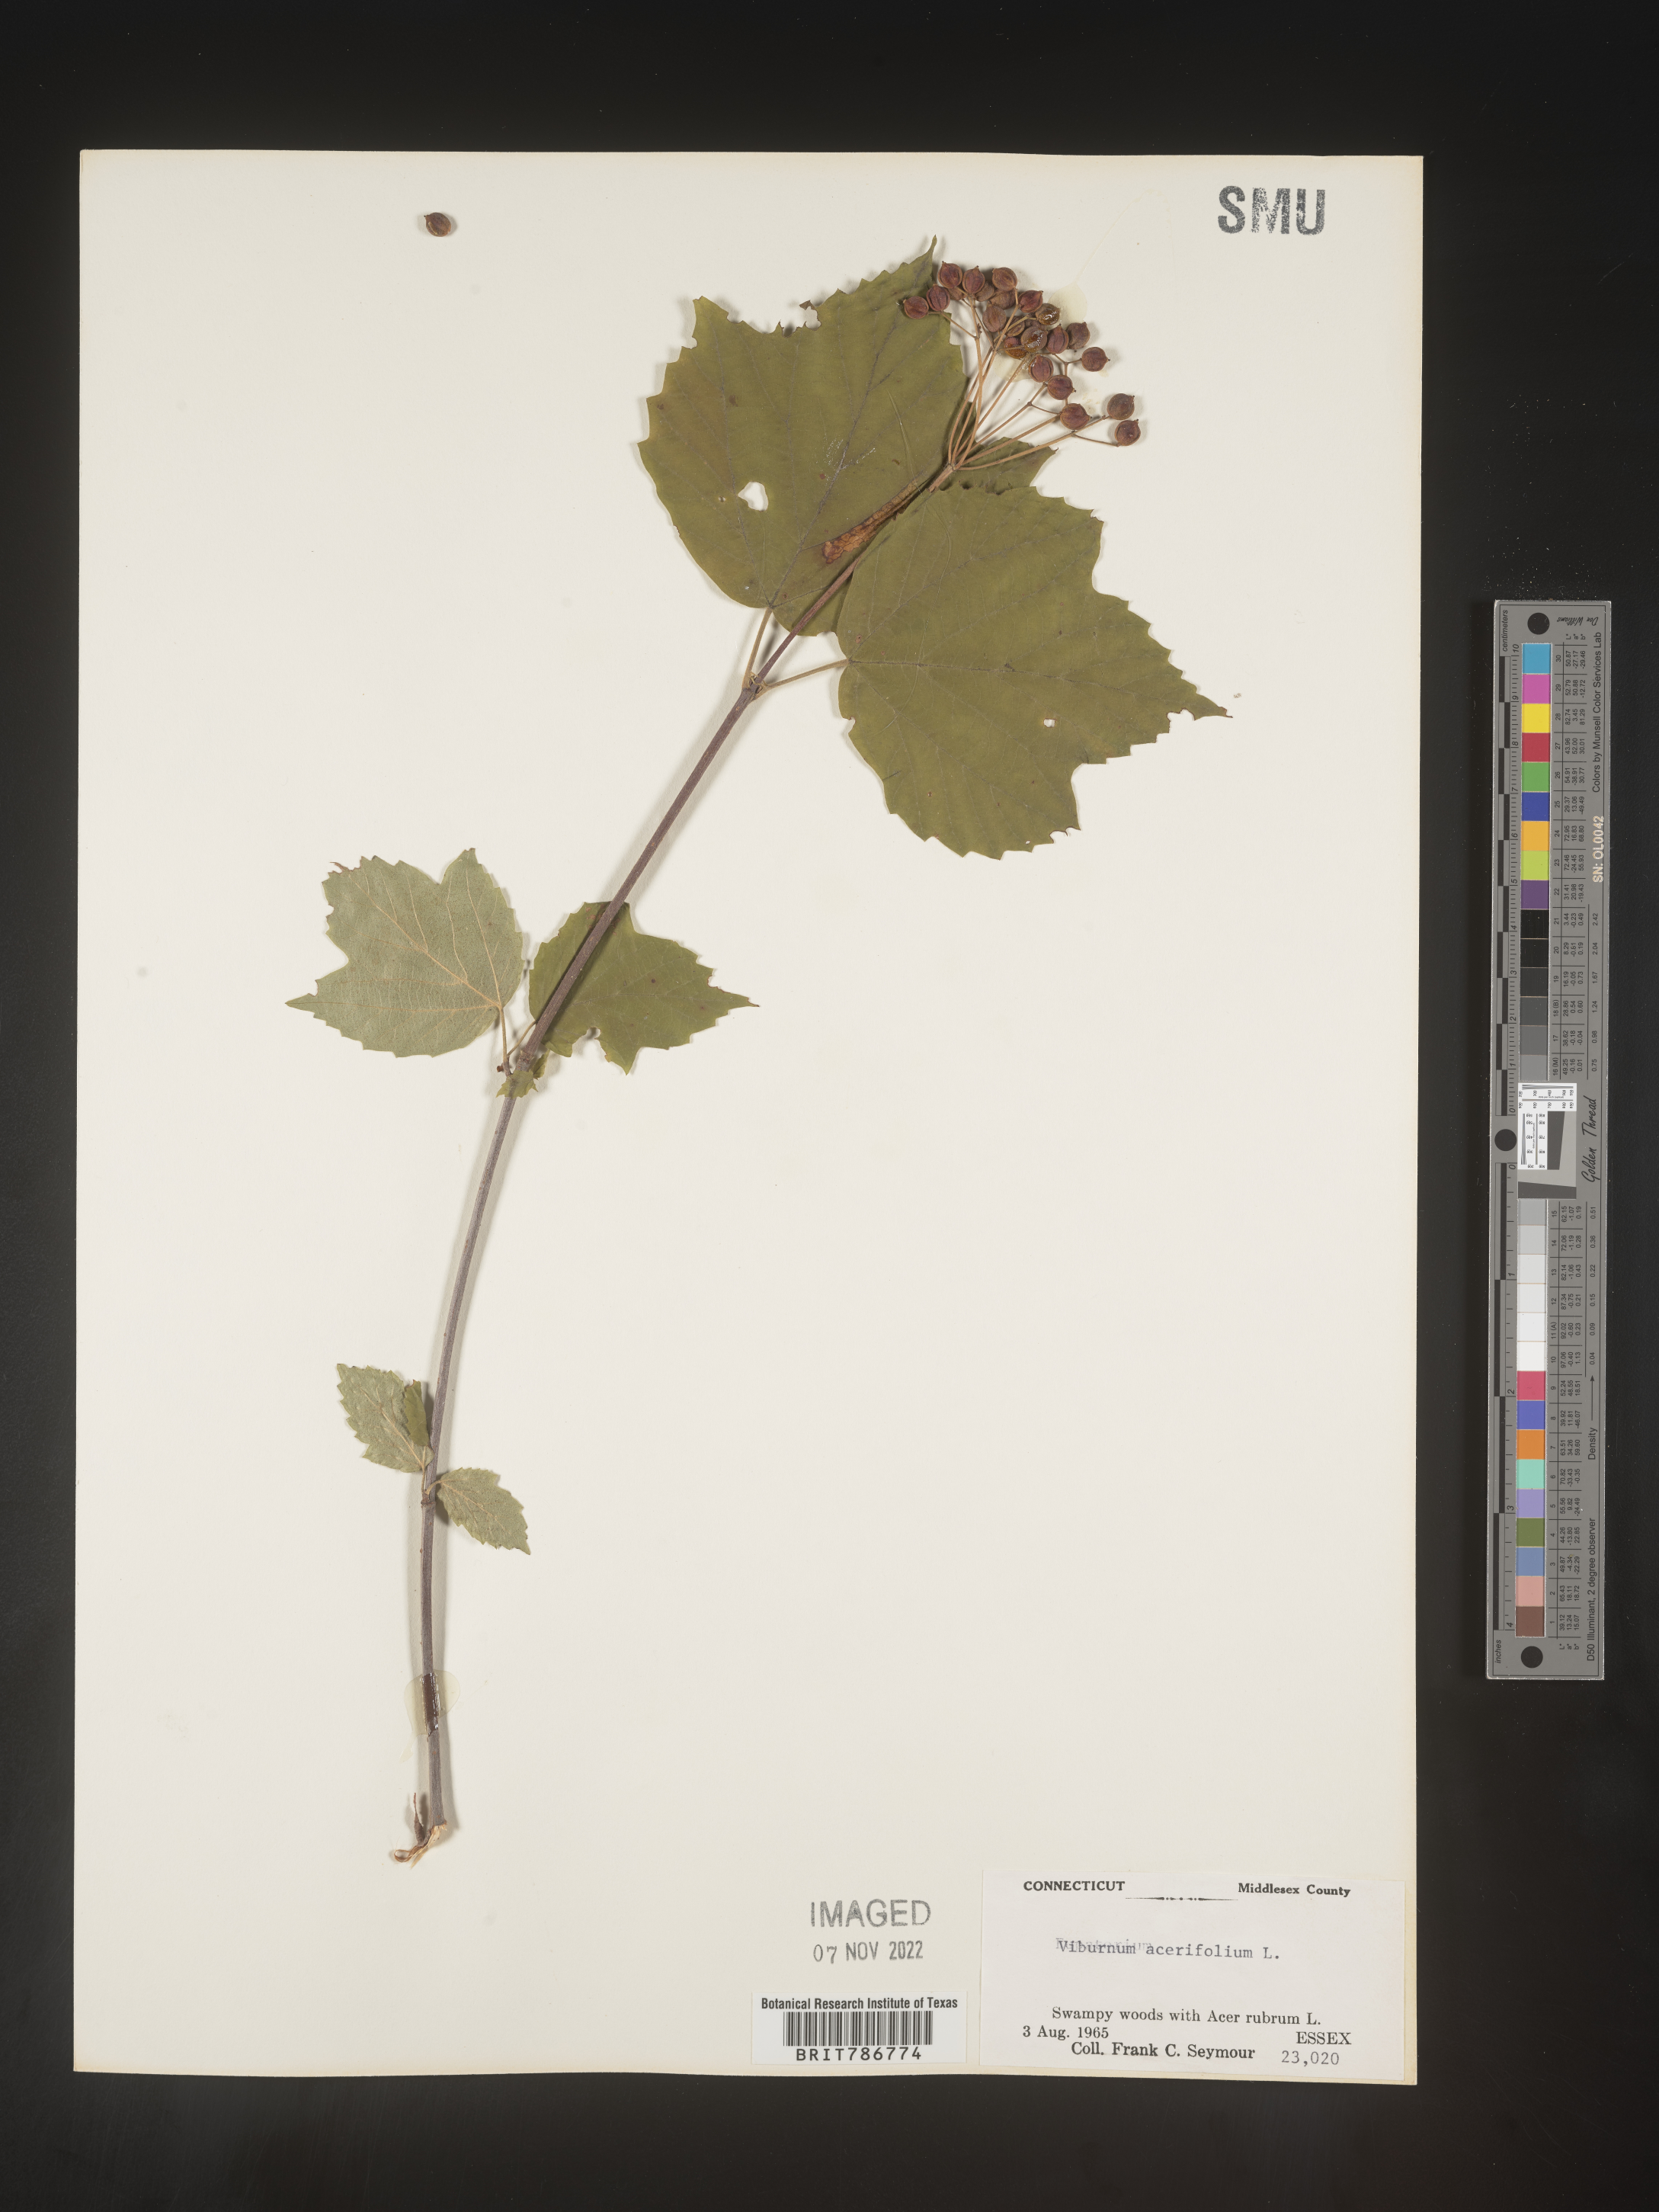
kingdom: Plantae
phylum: Tracheophyta
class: Magnoliopsida
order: Dipsacales
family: Viburnaceae
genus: Viburnum
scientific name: Viburnum acerifolium
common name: Dockmackie
